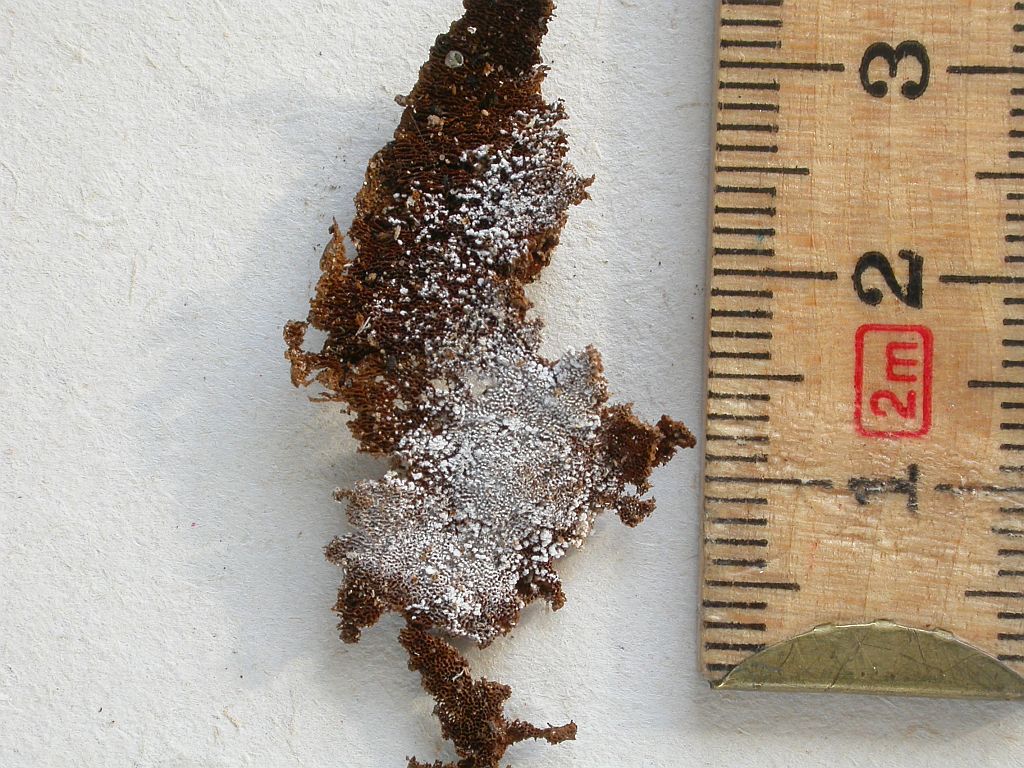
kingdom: Fungi
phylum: Basidiomycota
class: Agaricomycetes
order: Trechisporales
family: Sistotremataceae
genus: Trechispora
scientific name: Trechispora stevensonii
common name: støvende vathinde
